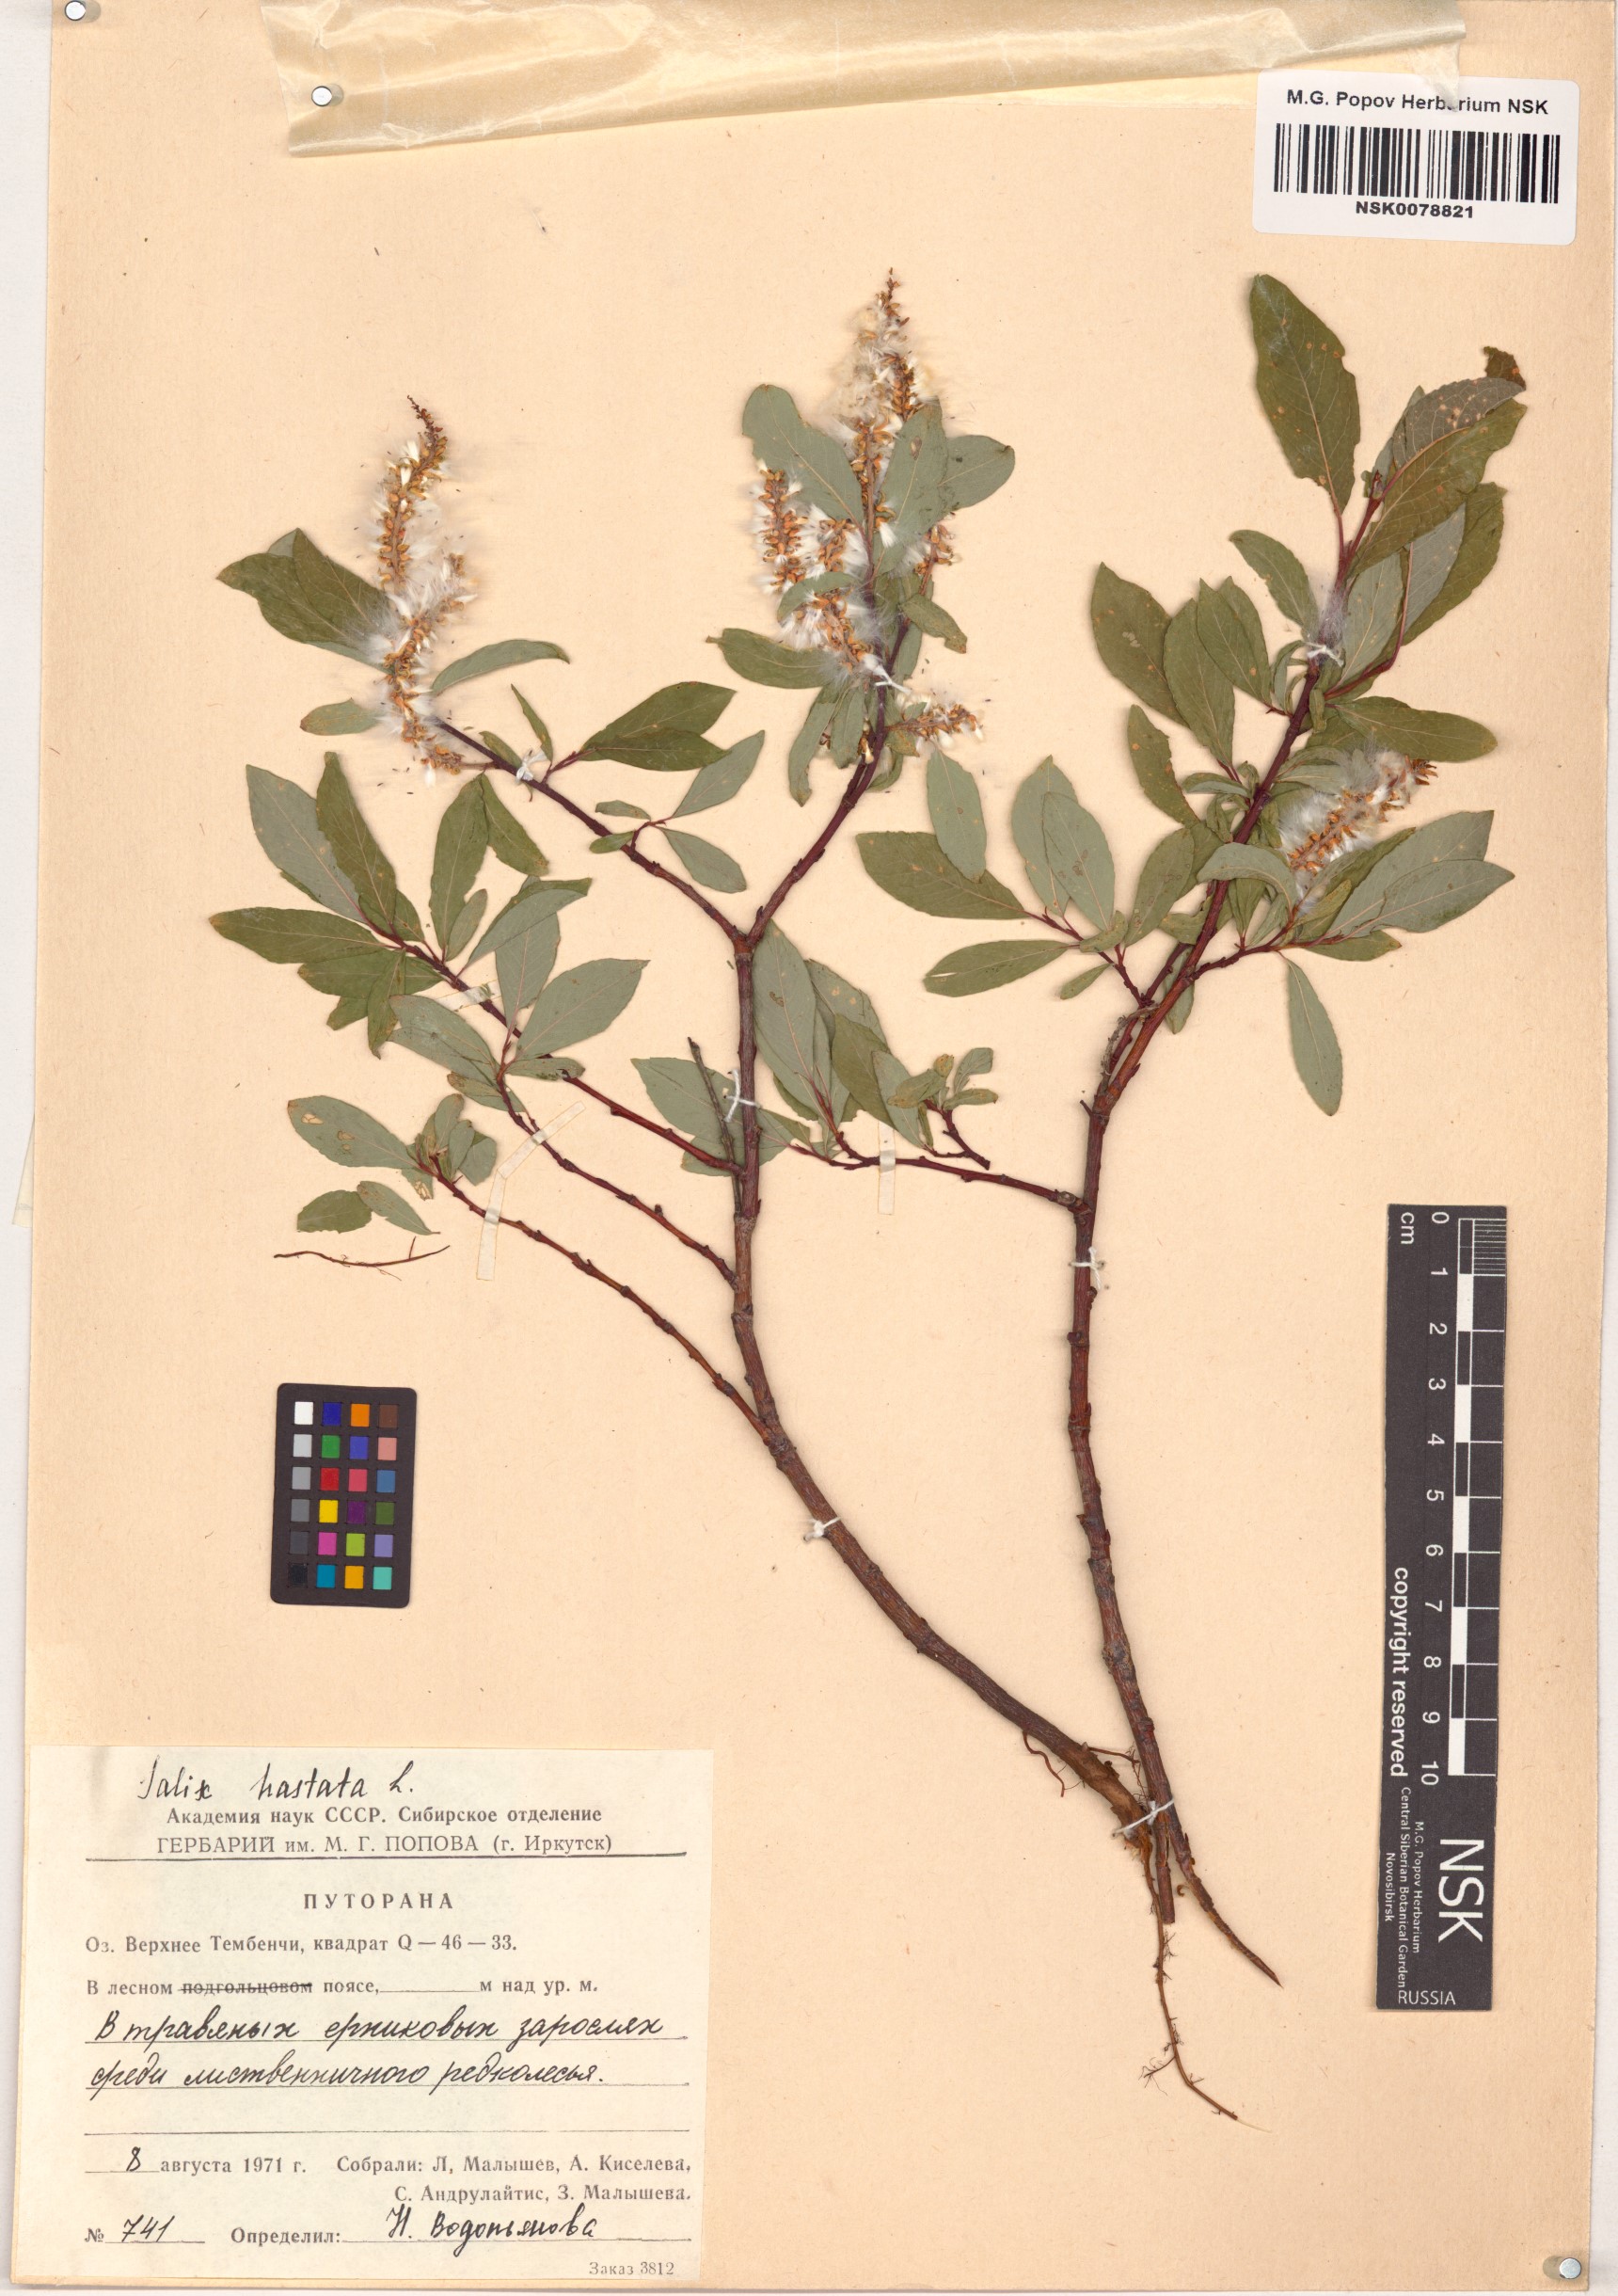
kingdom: Plantae
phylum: Tracheophyta
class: Magnoliopsida
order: Malpighiales
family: Salicaceae
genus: Salix
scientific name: Salix hastata
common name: Halberd willow
